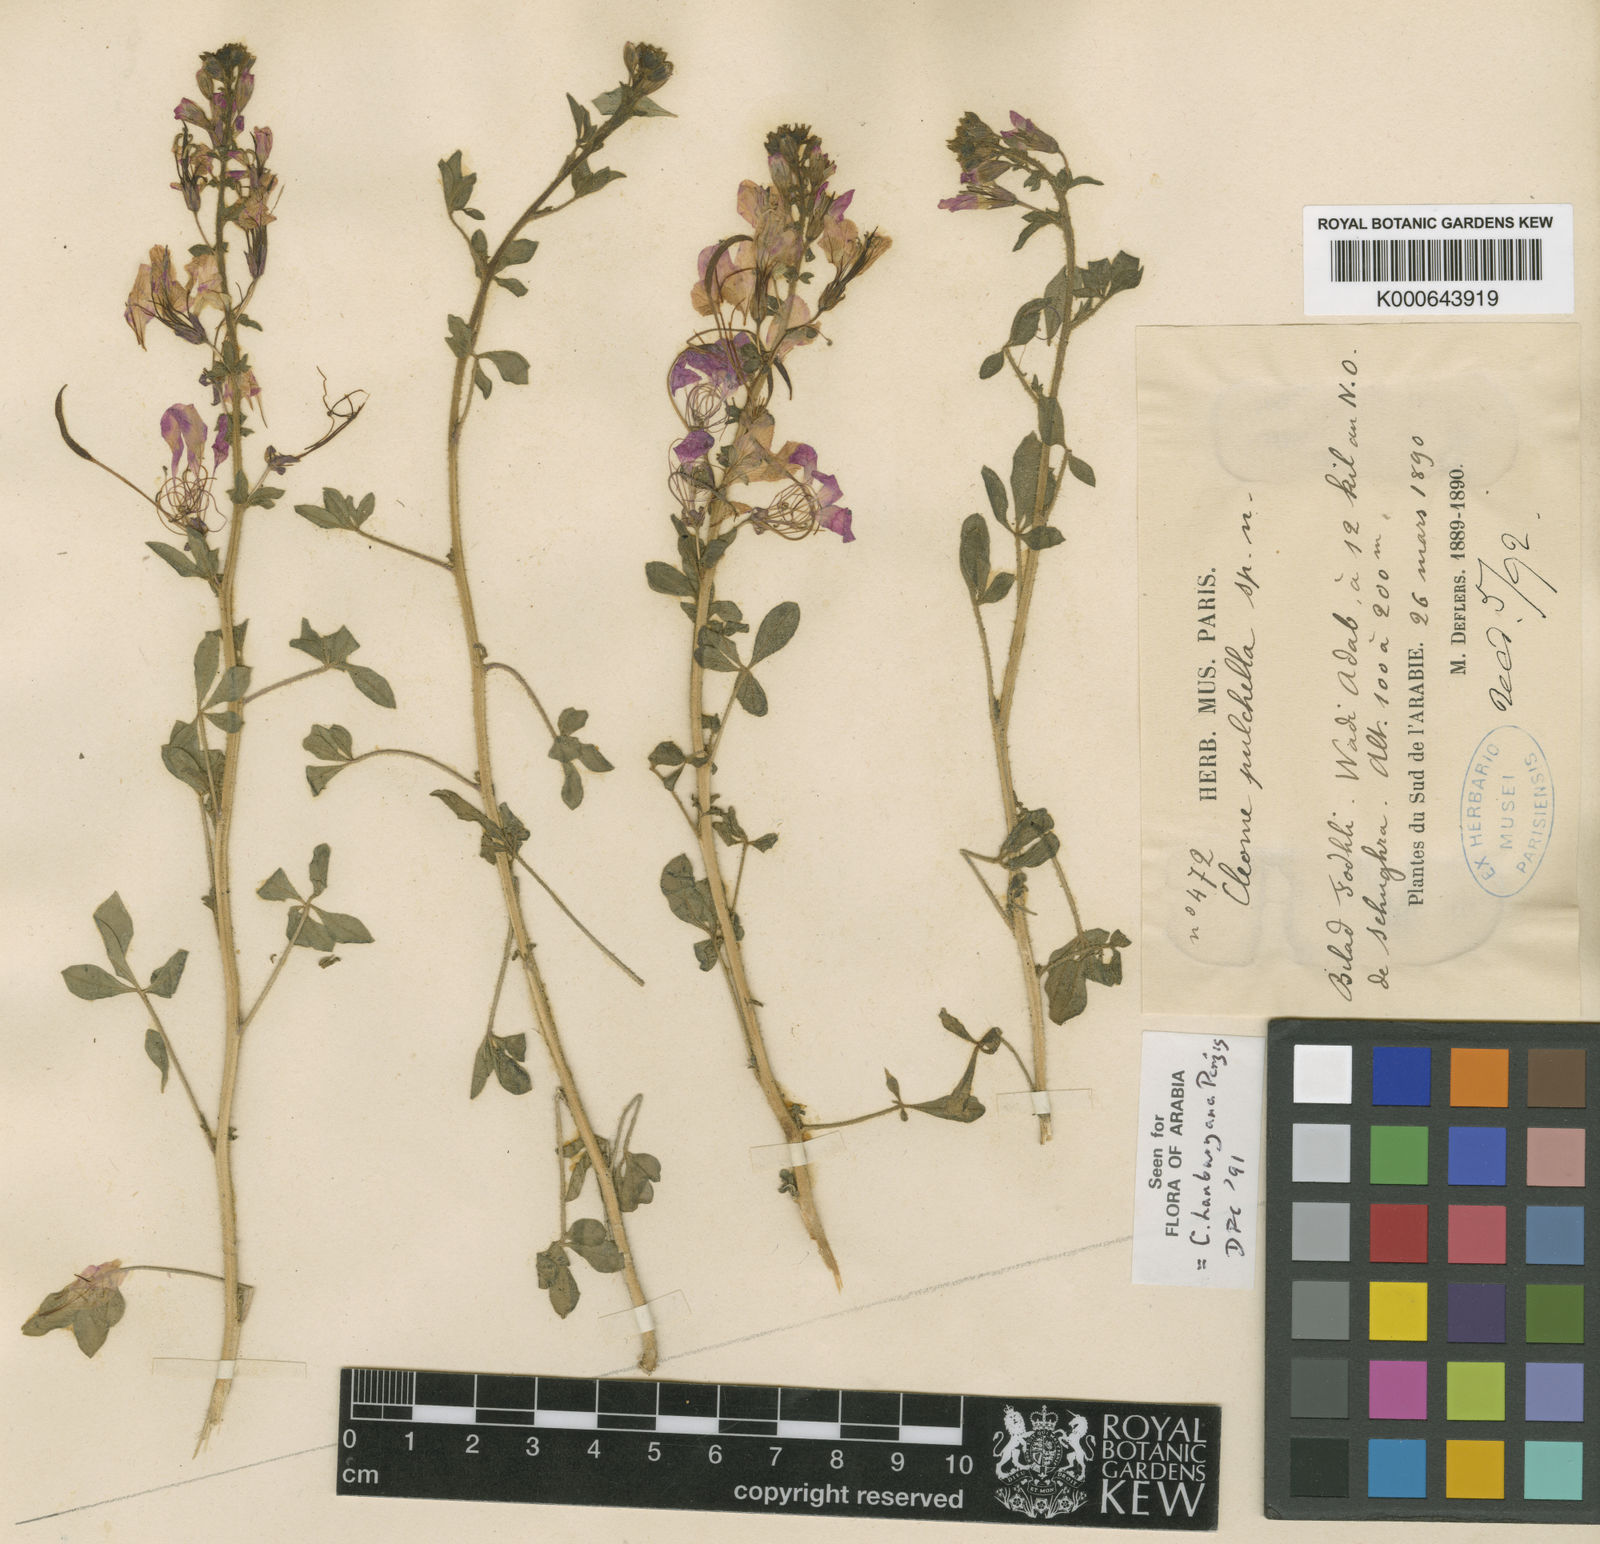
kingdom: Plantae
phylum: Tracheophyta
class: Magnoliopsida
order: Brassicales
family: Cleomaceae
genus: Sieruela
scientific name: Sieruela hanburyana
